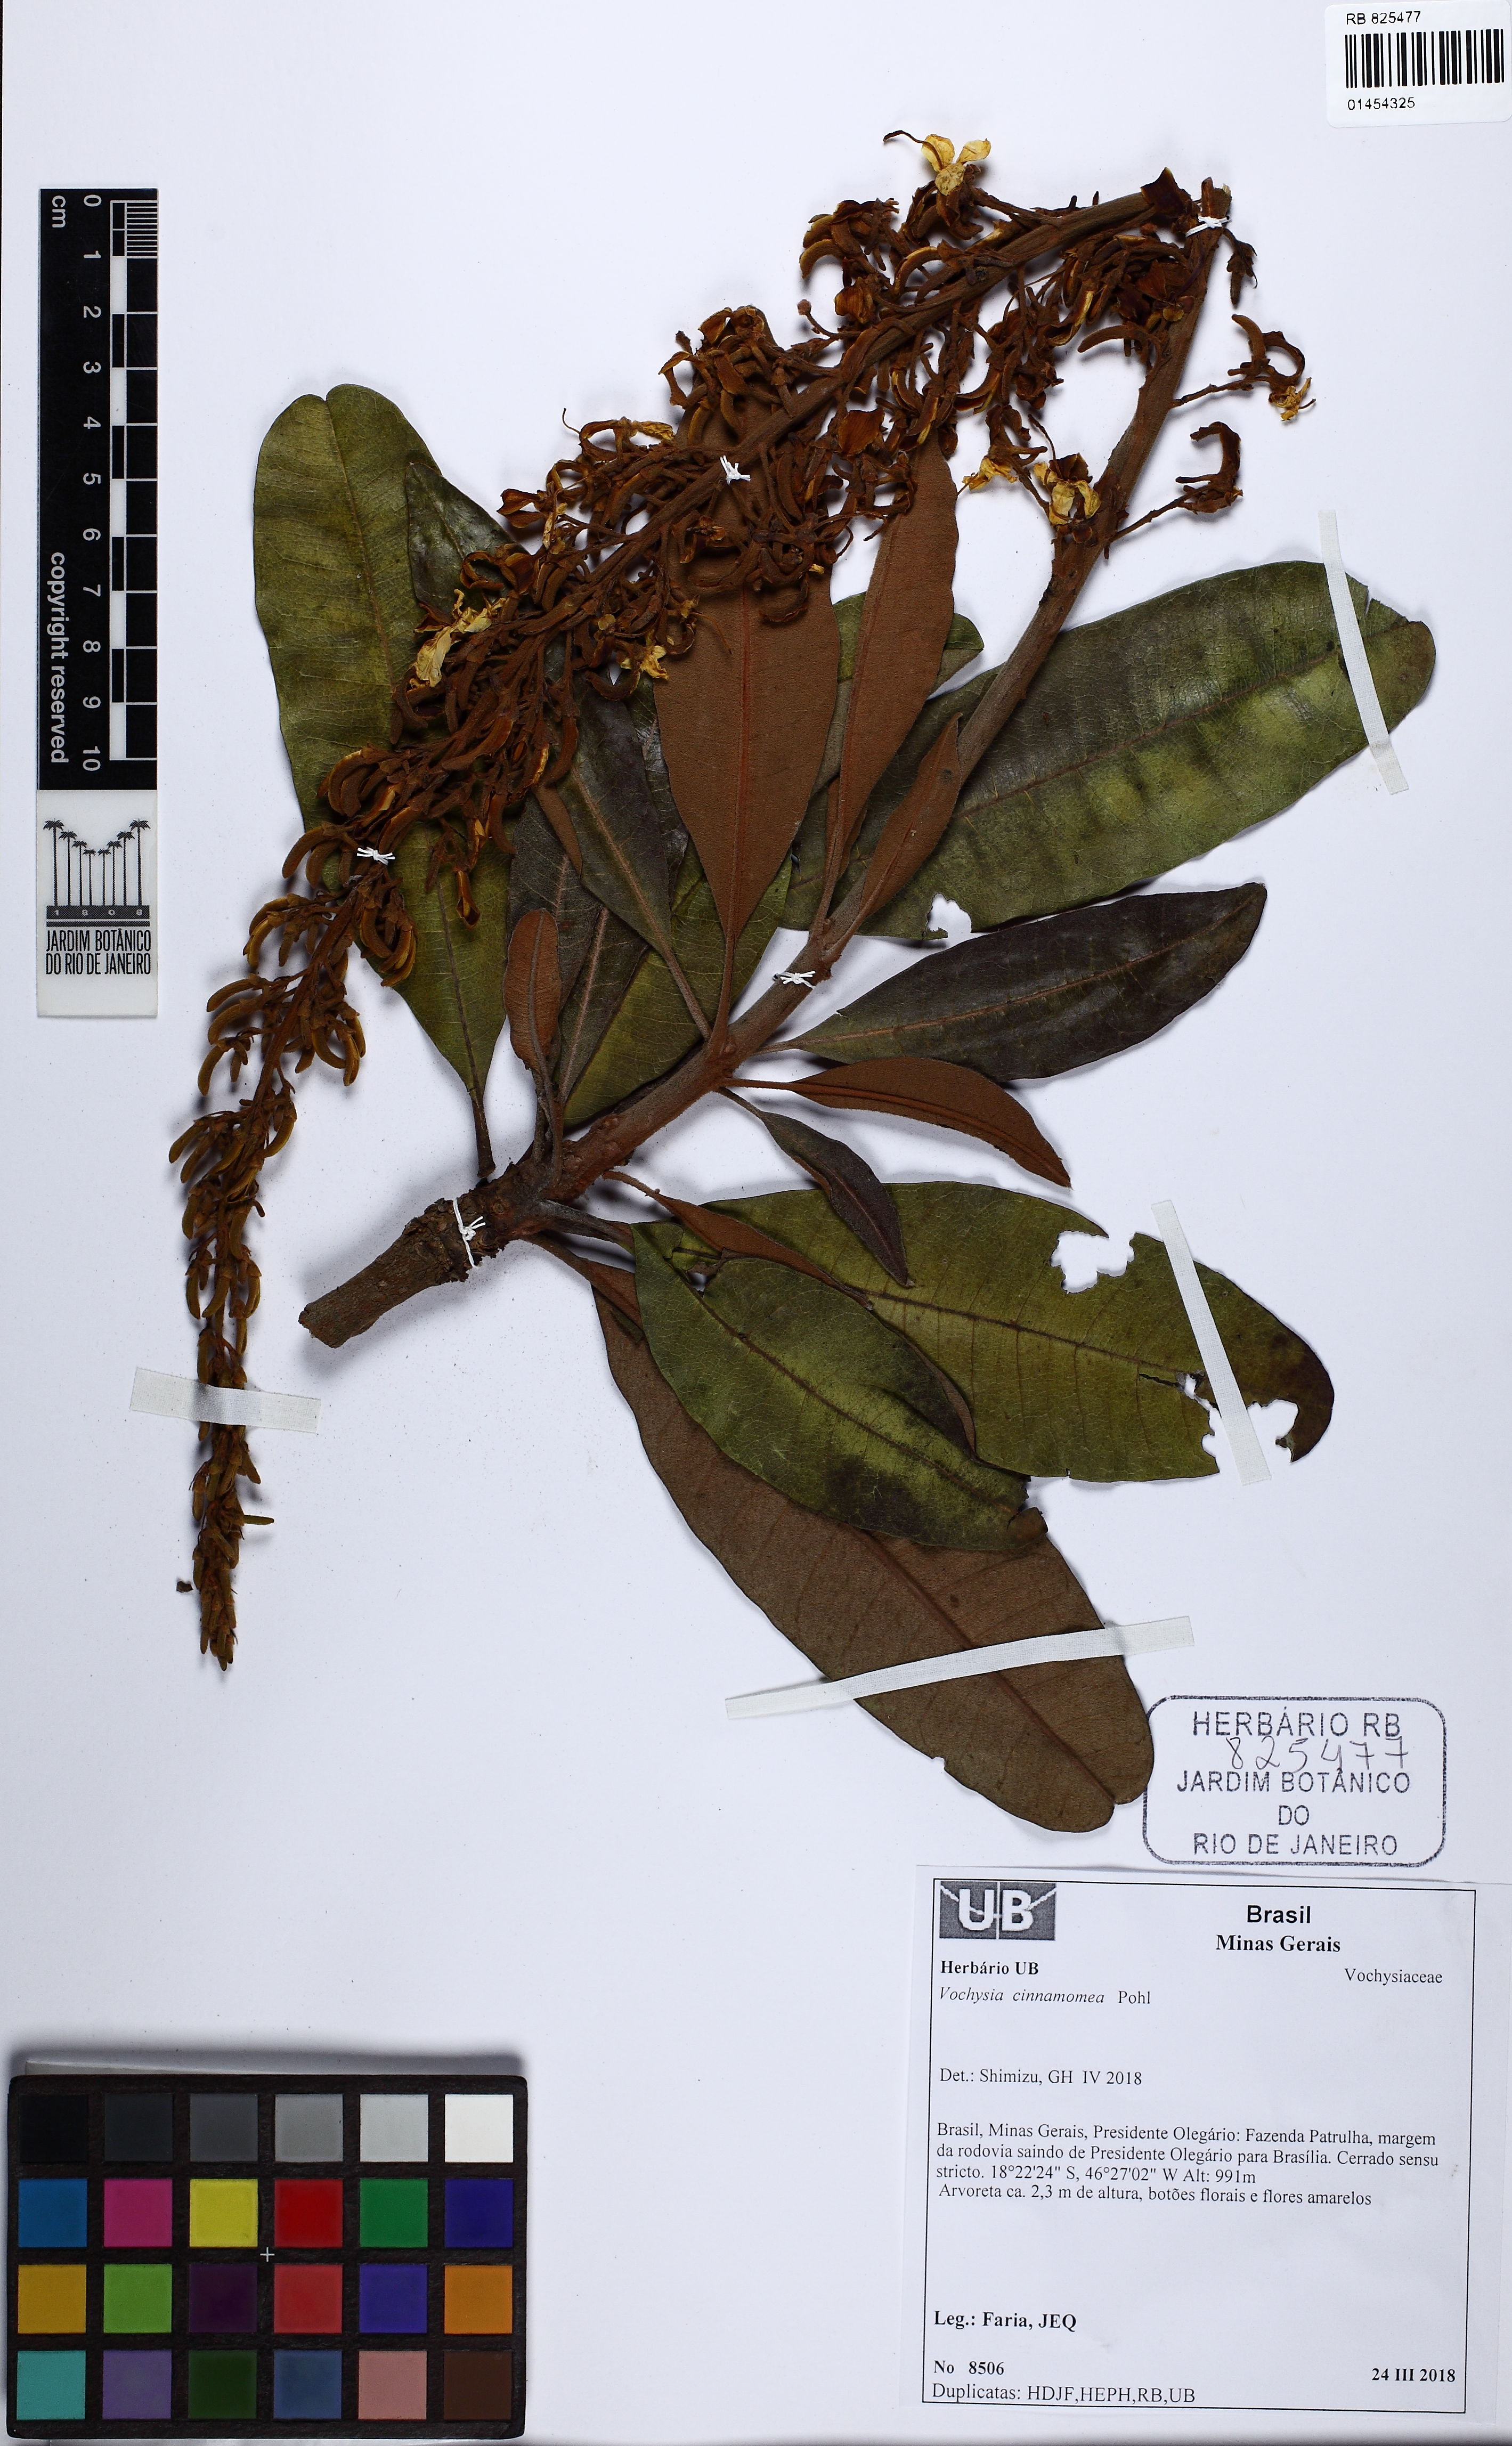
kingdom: Plantae
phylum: Tracheophyta
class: Magnoliopsida
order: Myrtales
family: Vochysiaceae
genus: Vochysia
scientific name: Vochysia cinnamomea
